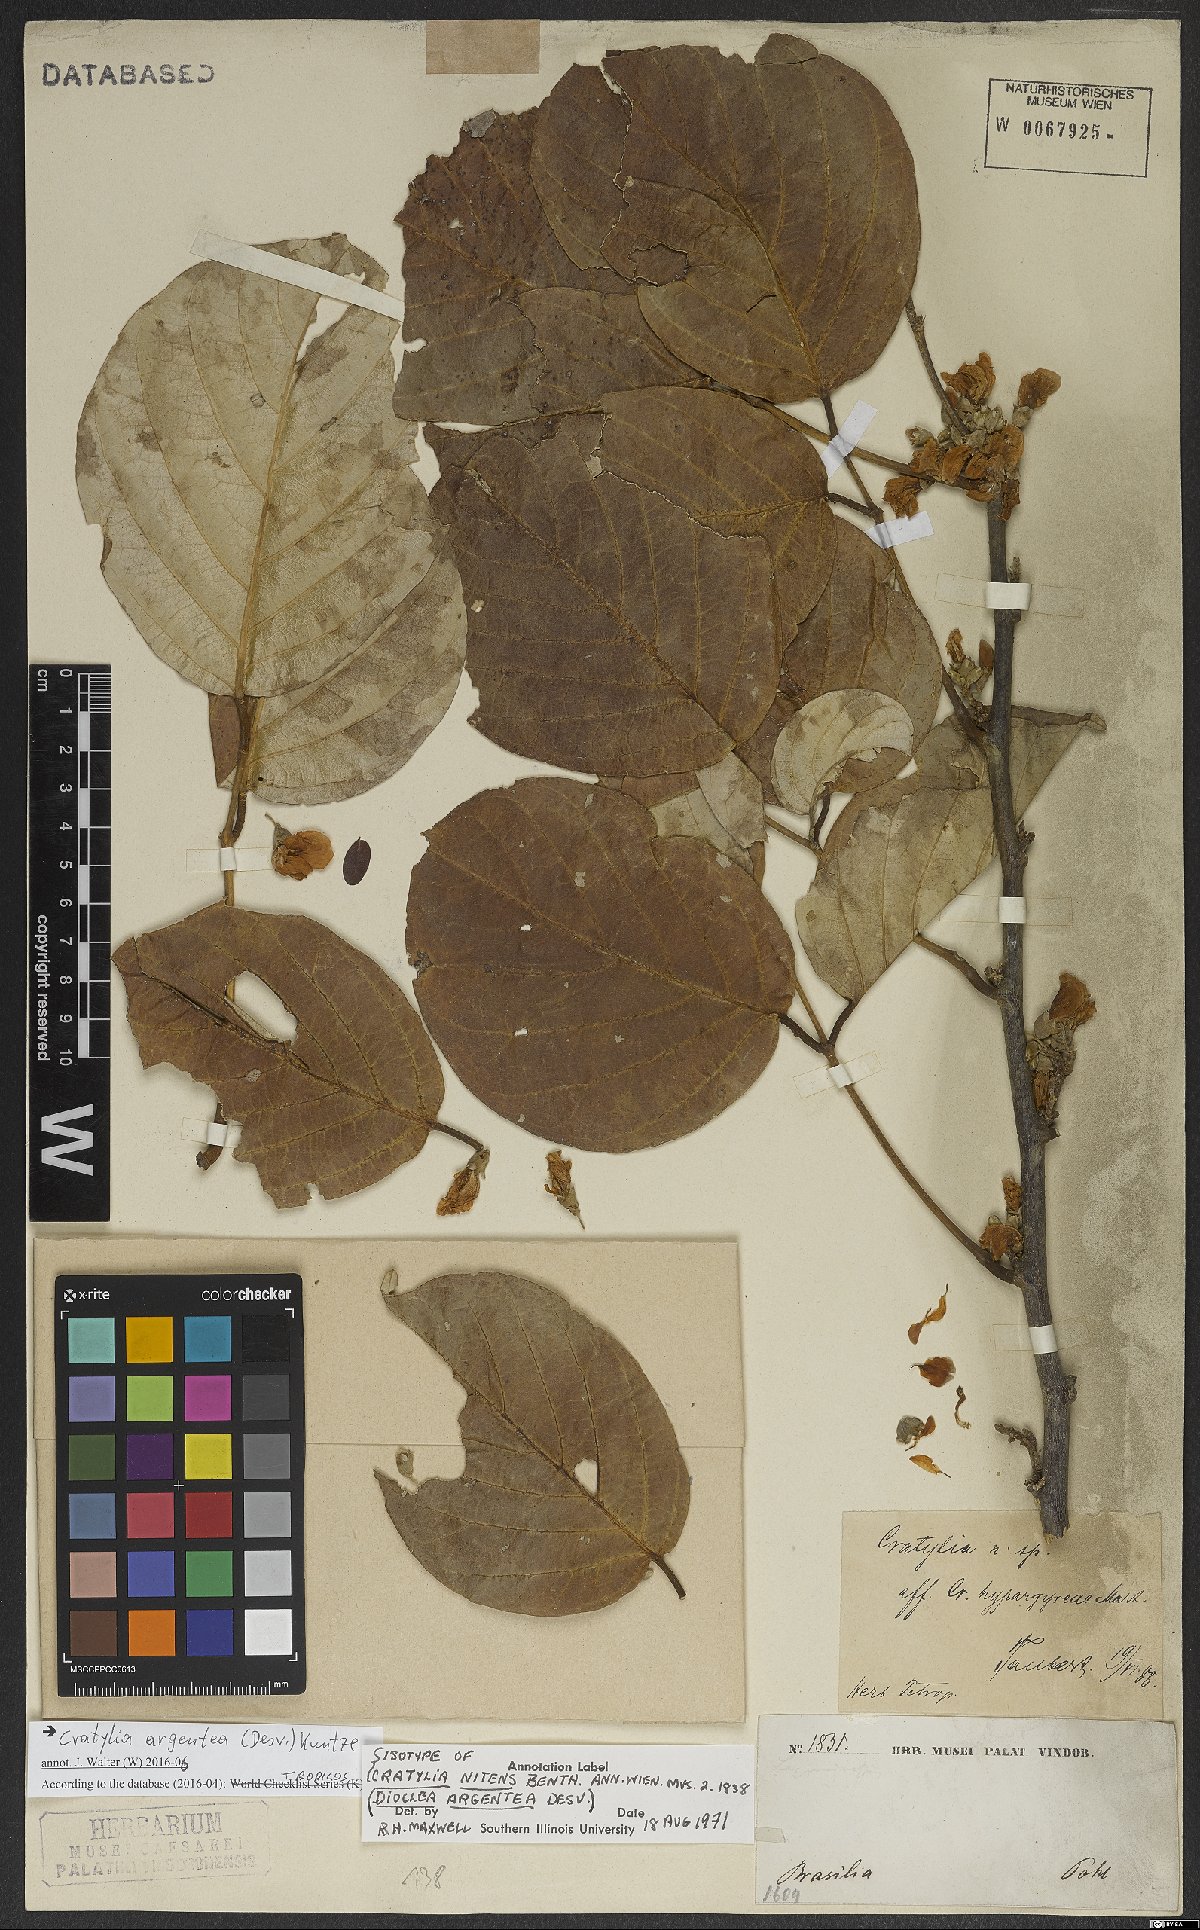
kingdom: Plantae
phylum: Tracheophyta
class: Magnoliopsida
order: Fabales
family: Fabaceae
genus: Cratylia
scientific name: Cratylia argentea
